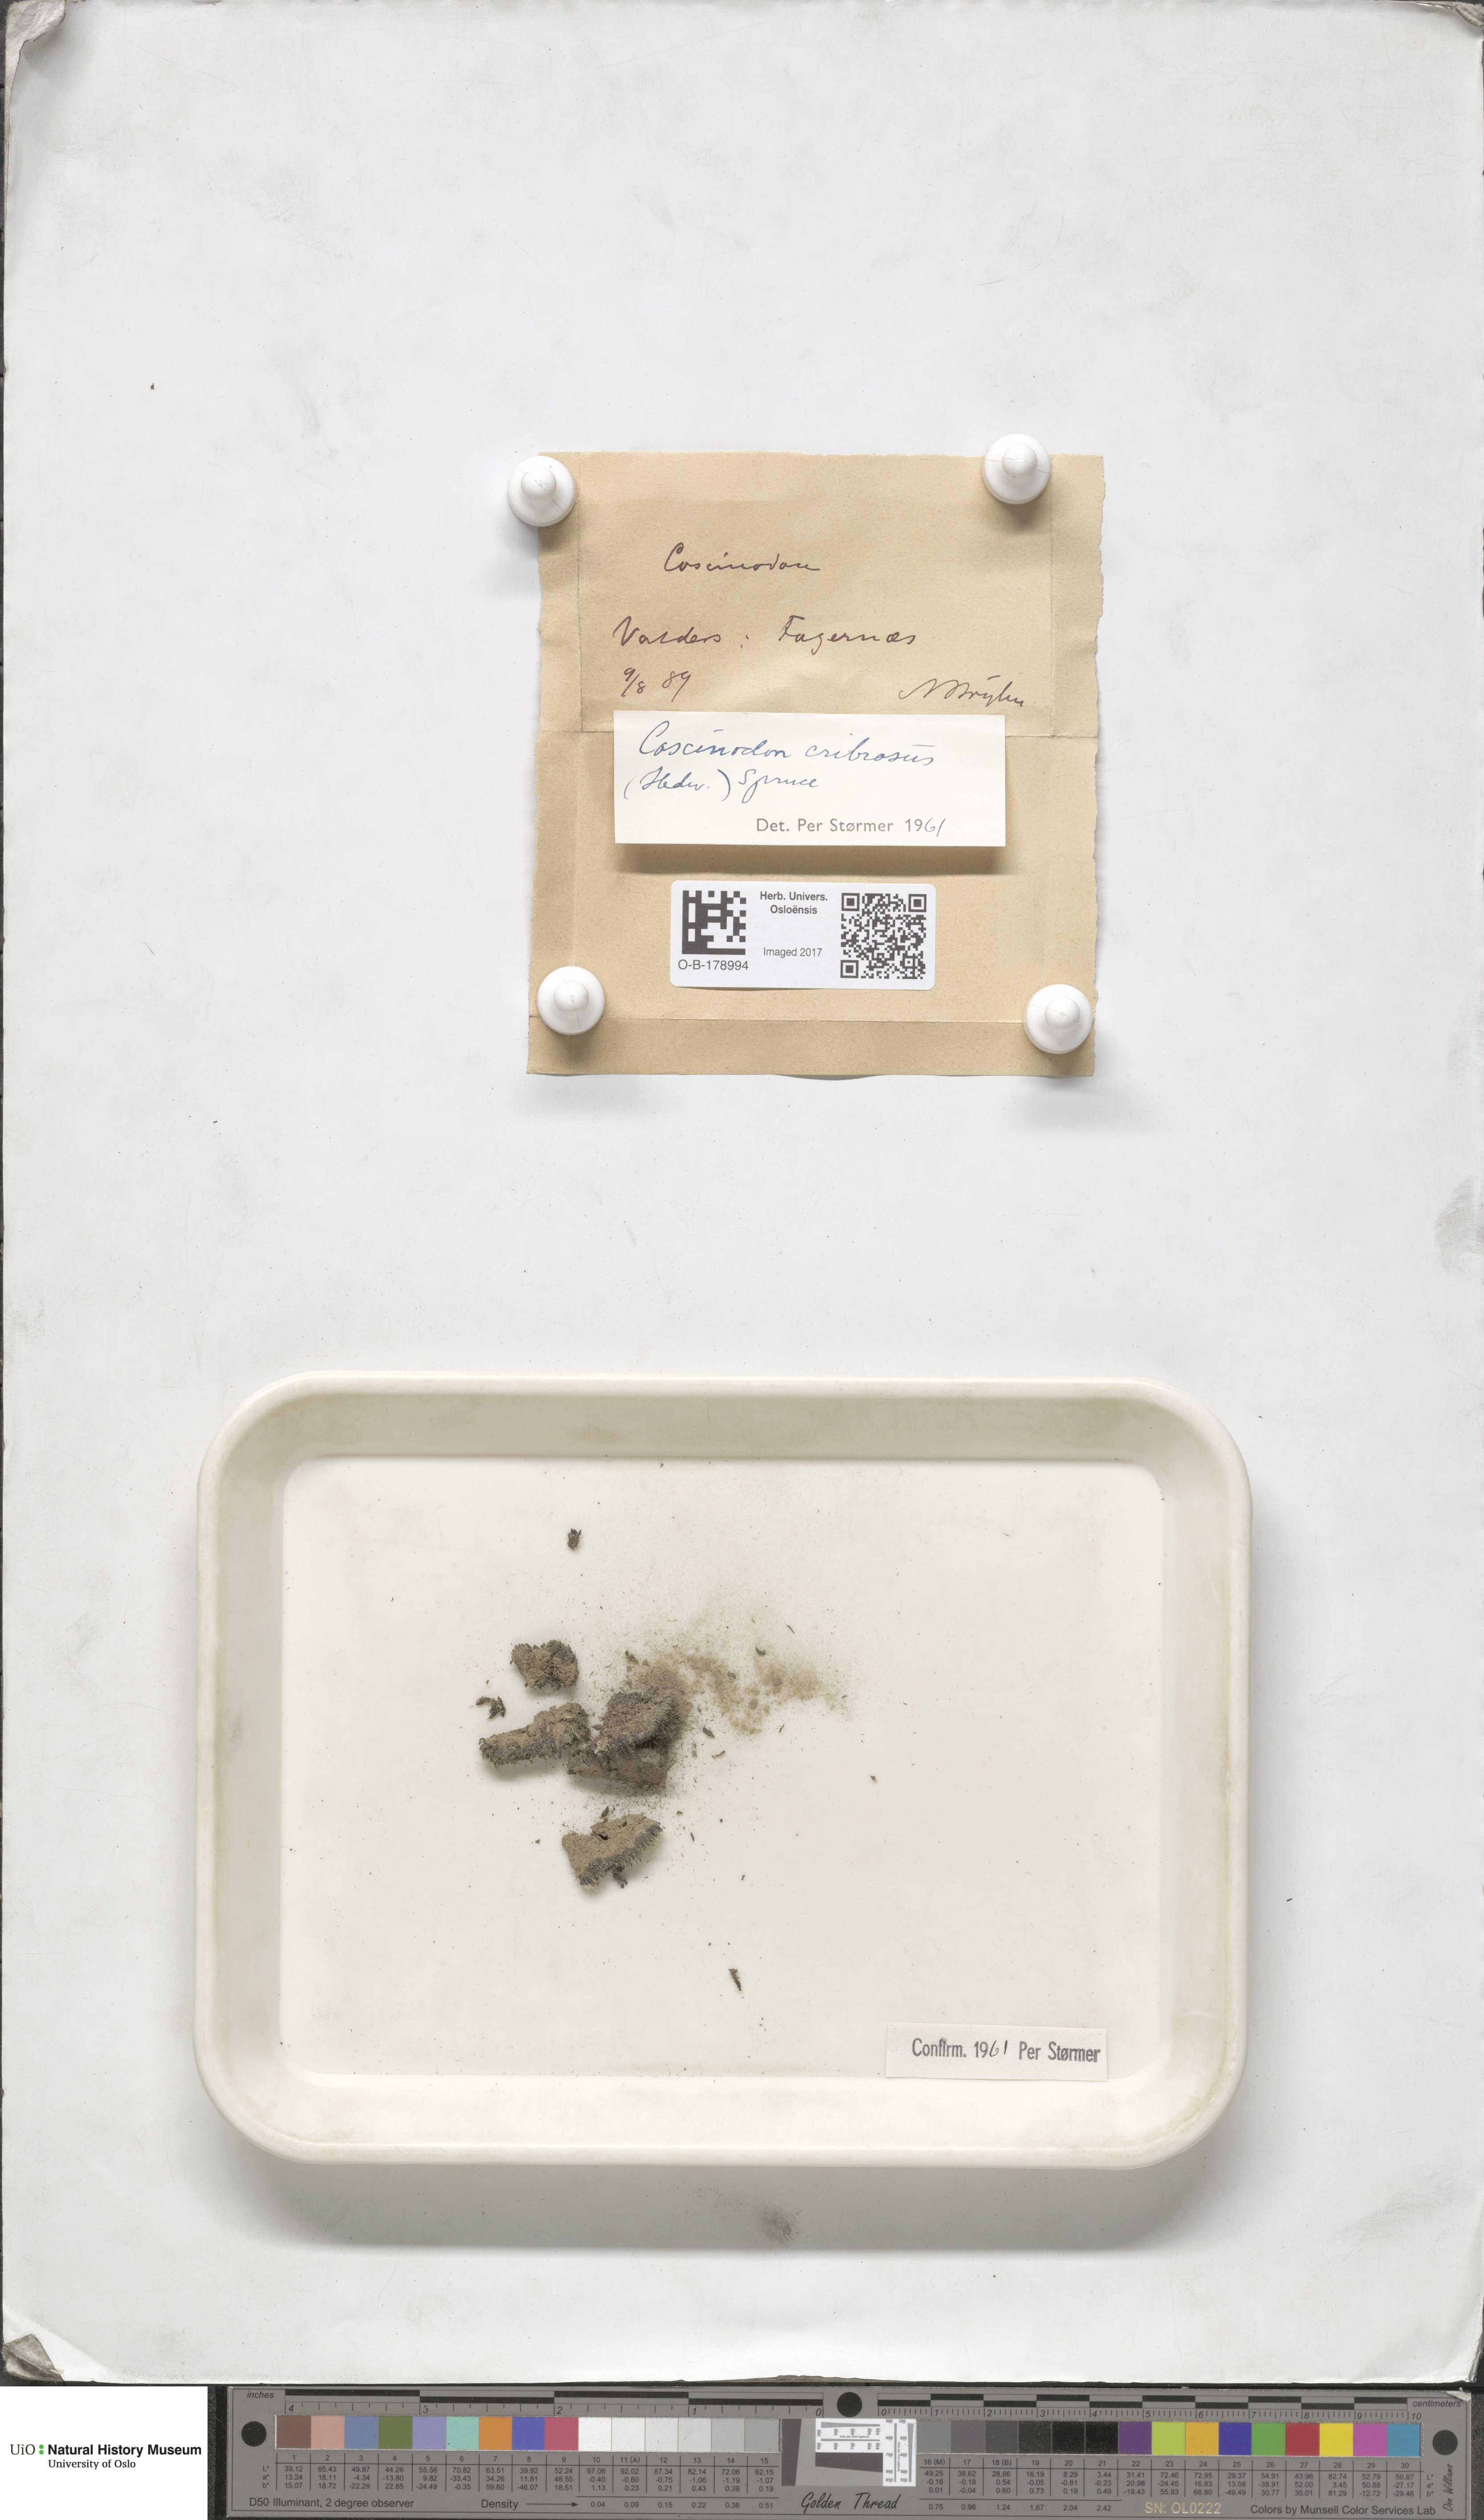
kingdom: Plantae
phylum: Bryophyta
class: Bryopsida
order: Bartramiales
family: Bartramiaceae
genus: Conostomum
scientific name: Conostomum tetragonum
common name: Helmet moss
